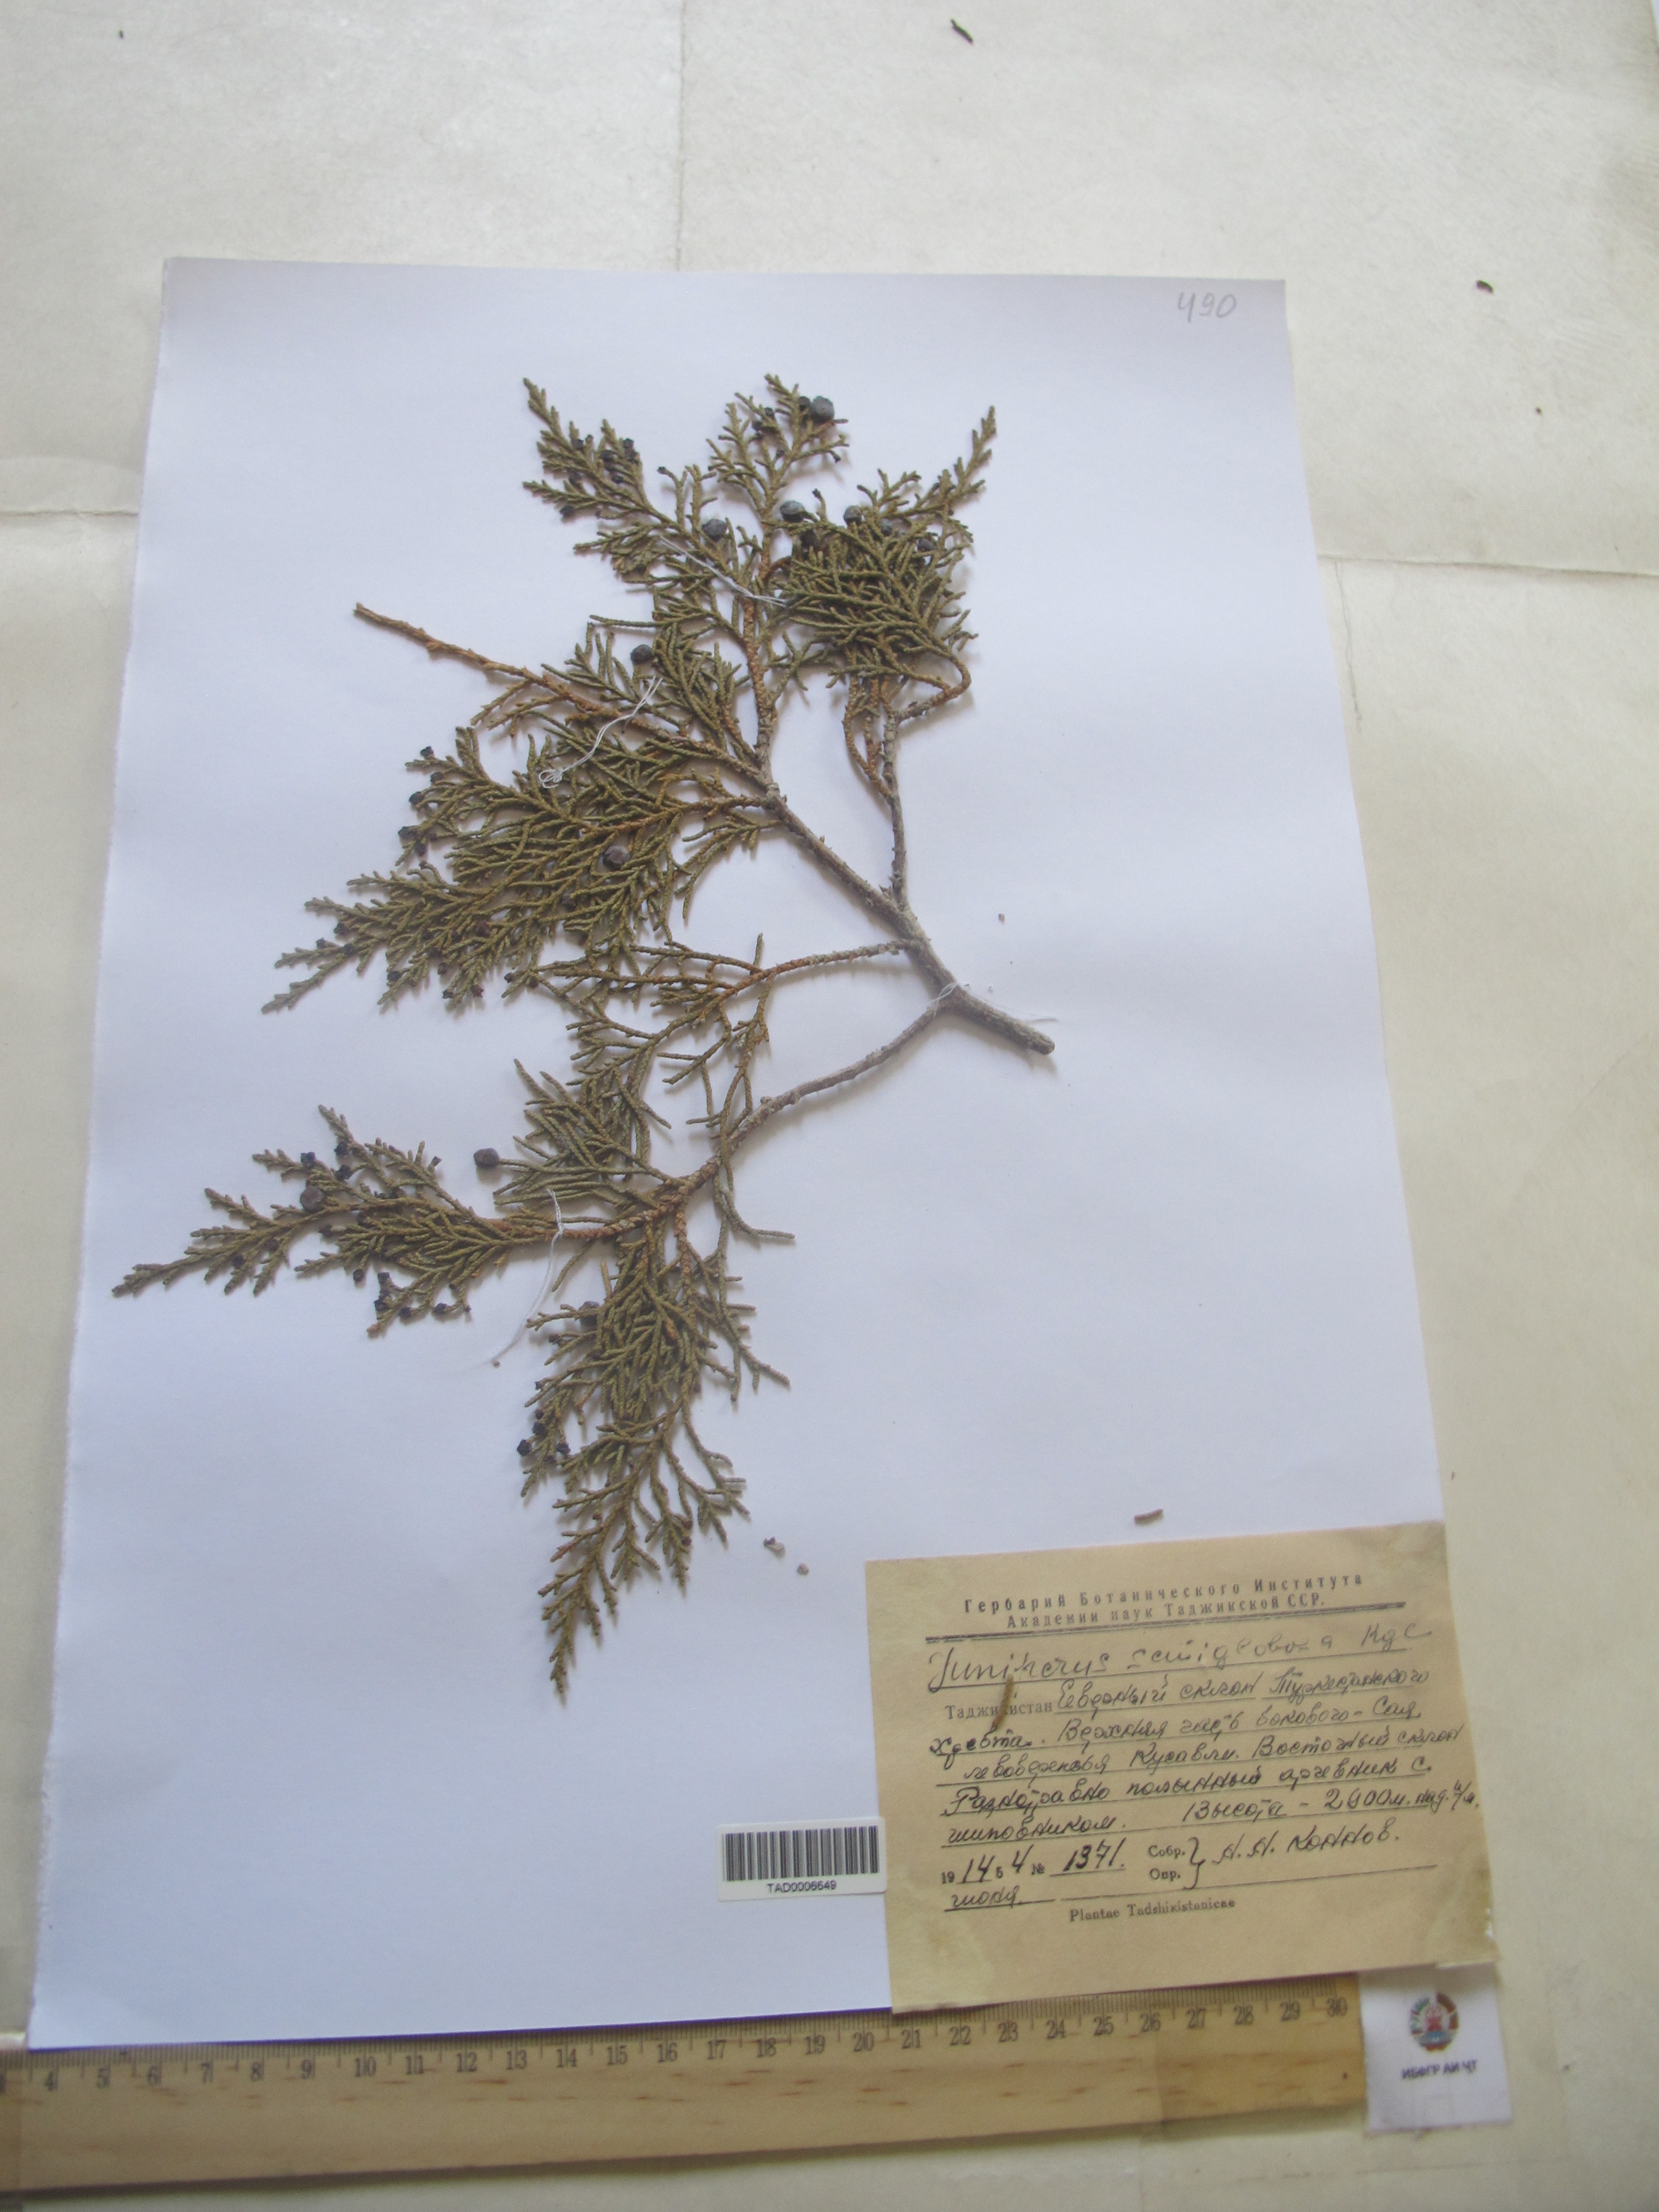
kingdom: Plantae
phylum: Tracheophyta
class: Pinopsida
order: Pinales
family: Cupressaceae
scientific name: Cupressaceae
